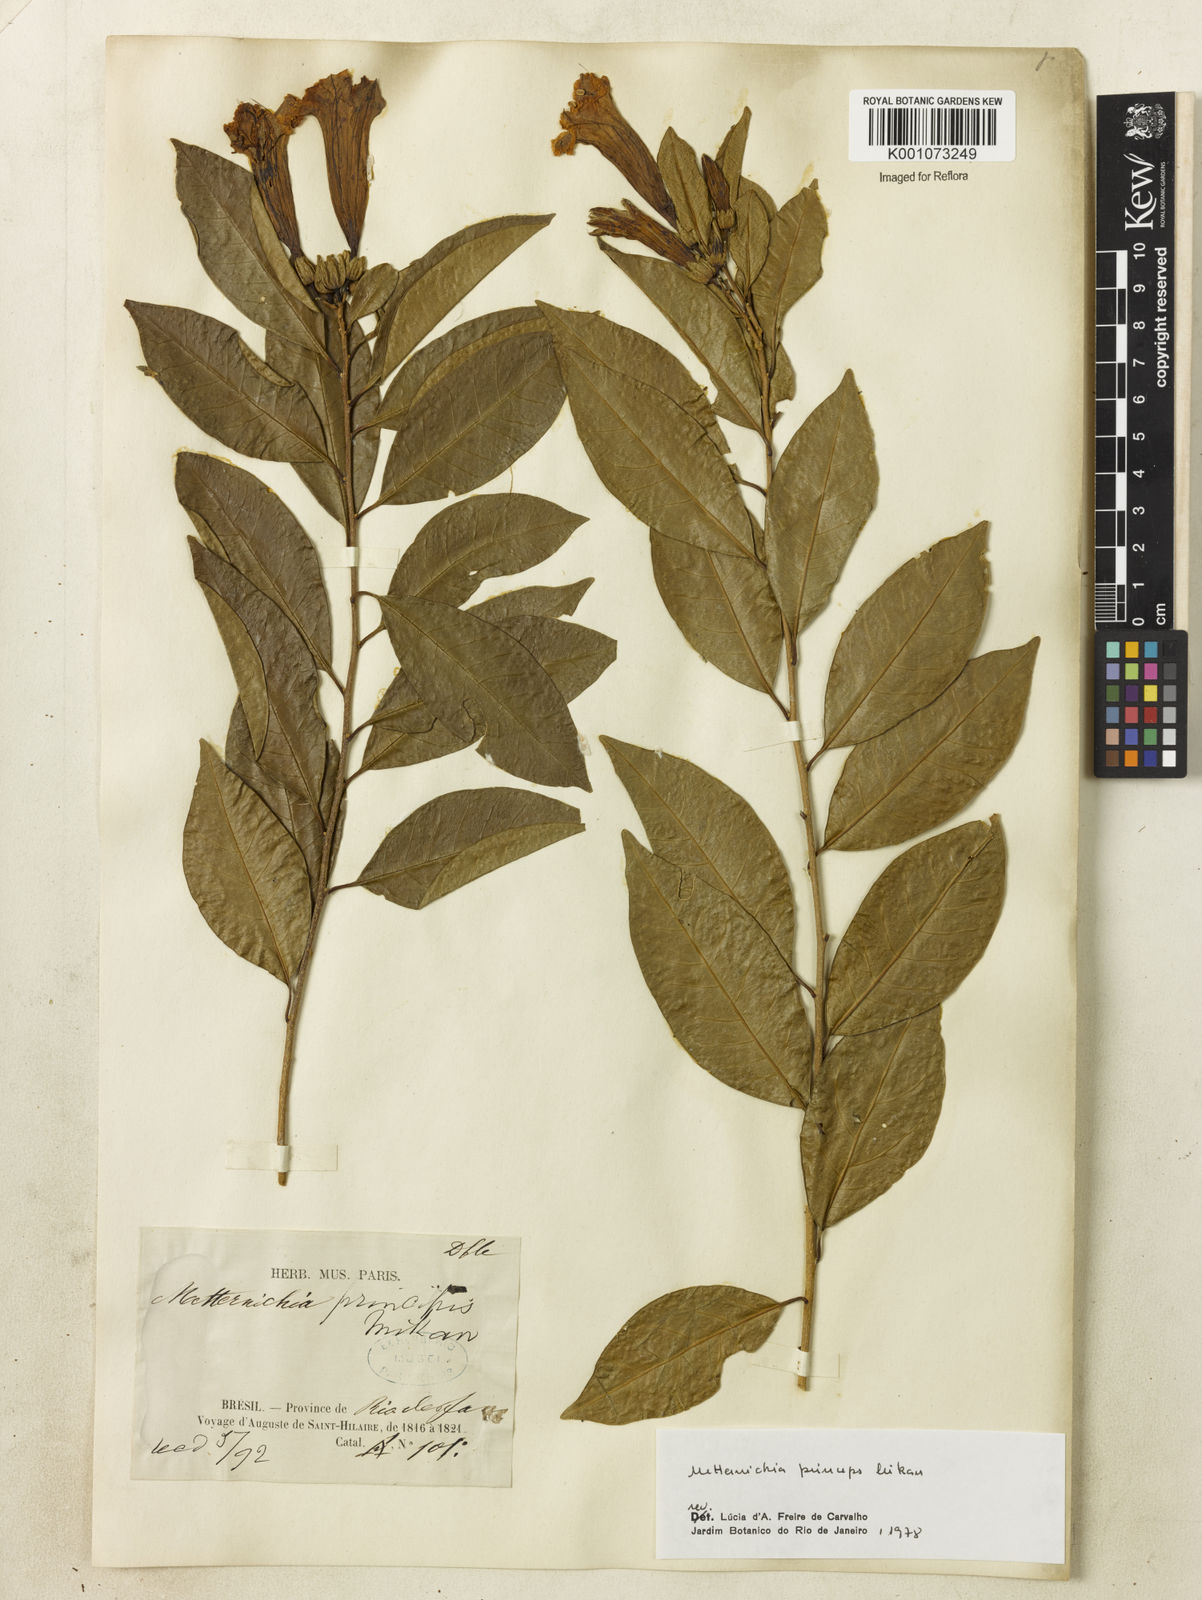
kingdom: Plantae
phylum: Tracheophyta
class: Magnoliopsida
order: Solanales
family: Solanaceae
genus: Metternichia
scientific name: Metternichia
